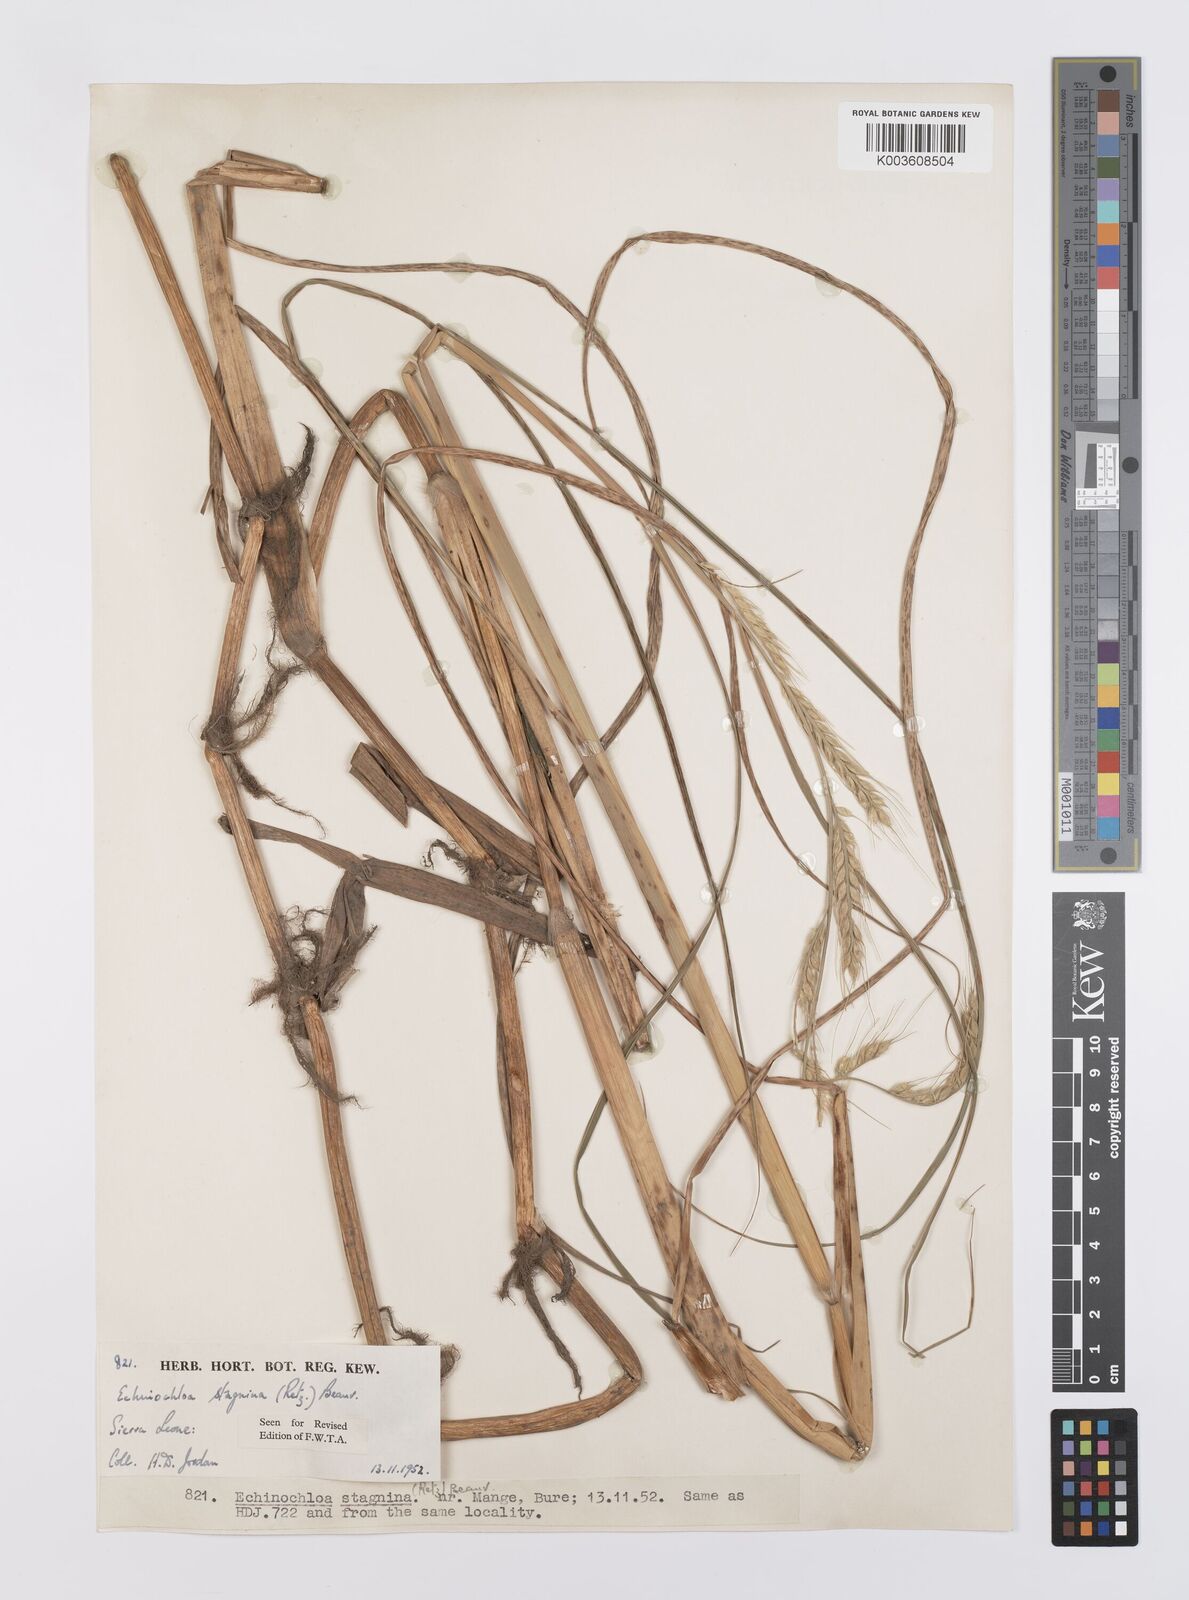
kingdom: Plantae
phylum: Tracheophyta
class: Liliopsida
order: Poales
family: Poaceae
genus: Echinochloa
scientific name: Echinochloa stagnina
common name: Burgu grass
